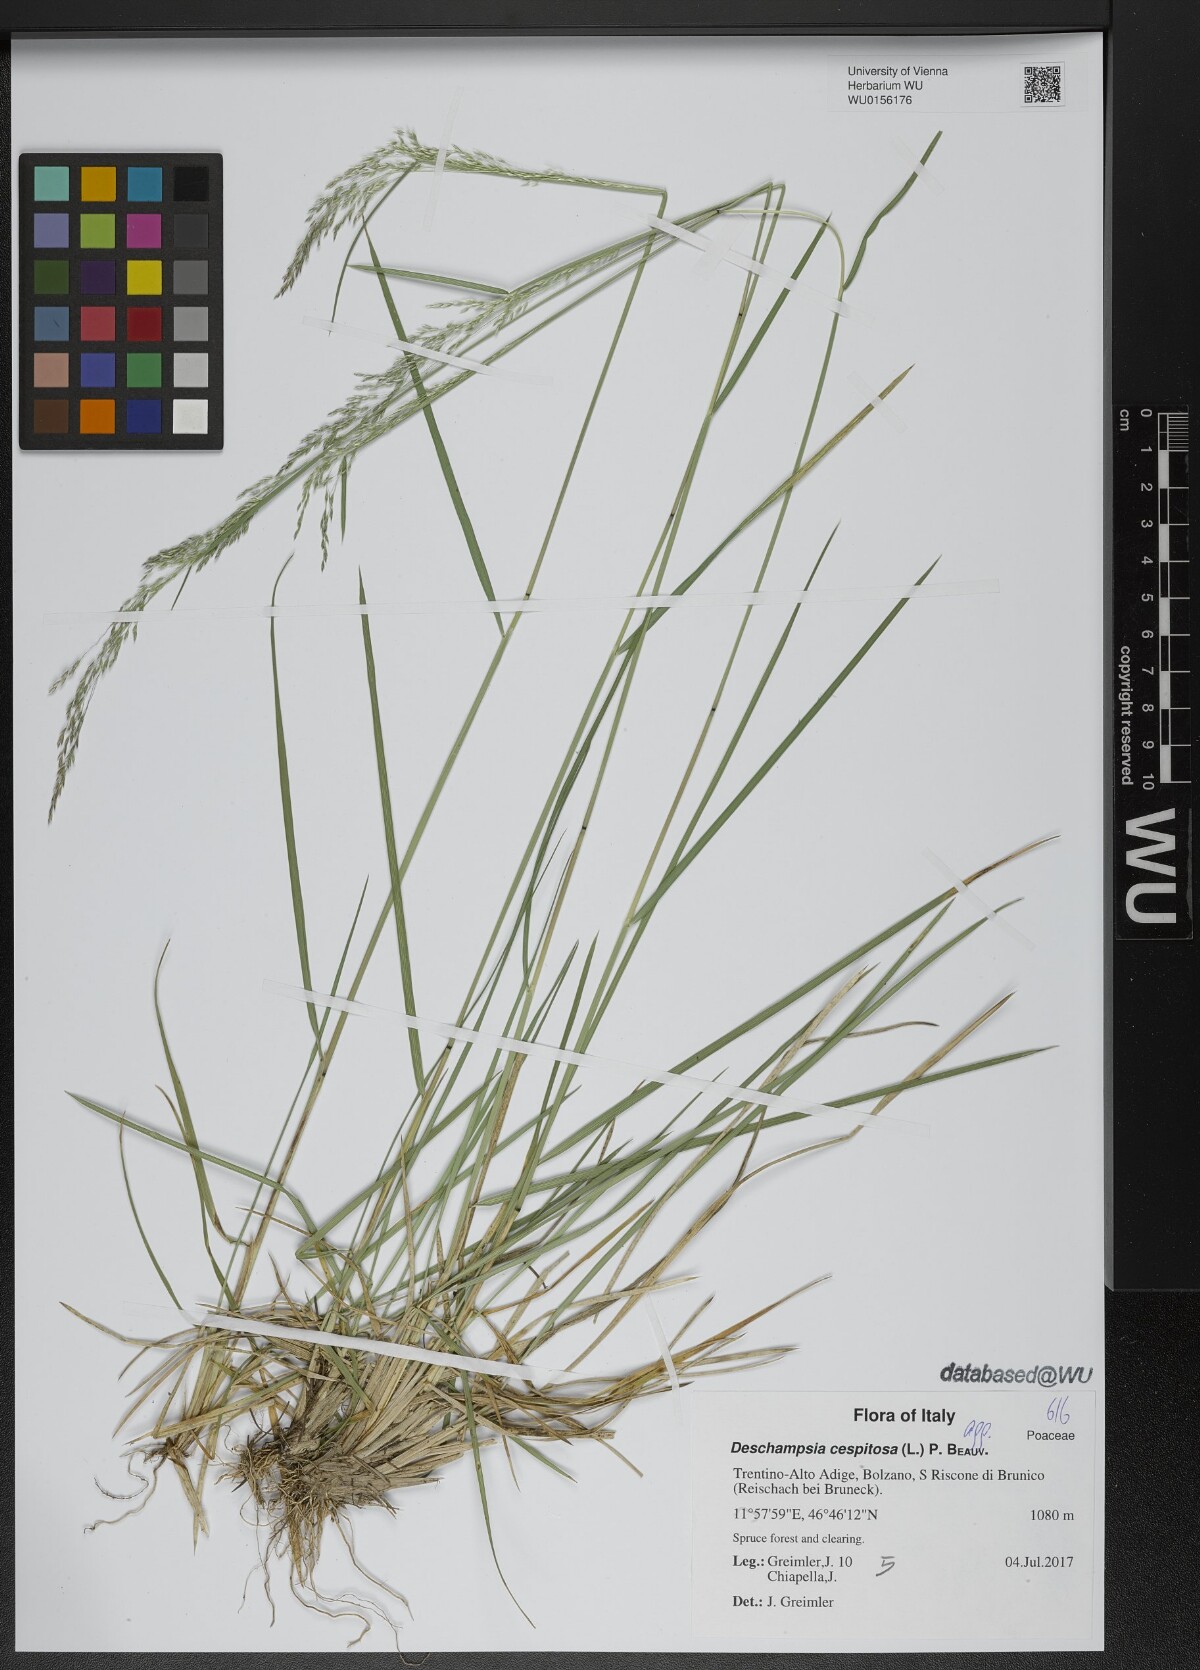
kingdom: Plantae
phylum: Tracheophyta
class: Liliopsida
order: Poales
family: Poaceae
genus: Deschampsia
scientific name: Deschampsia cespitosa
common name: Tufted hair-grass
